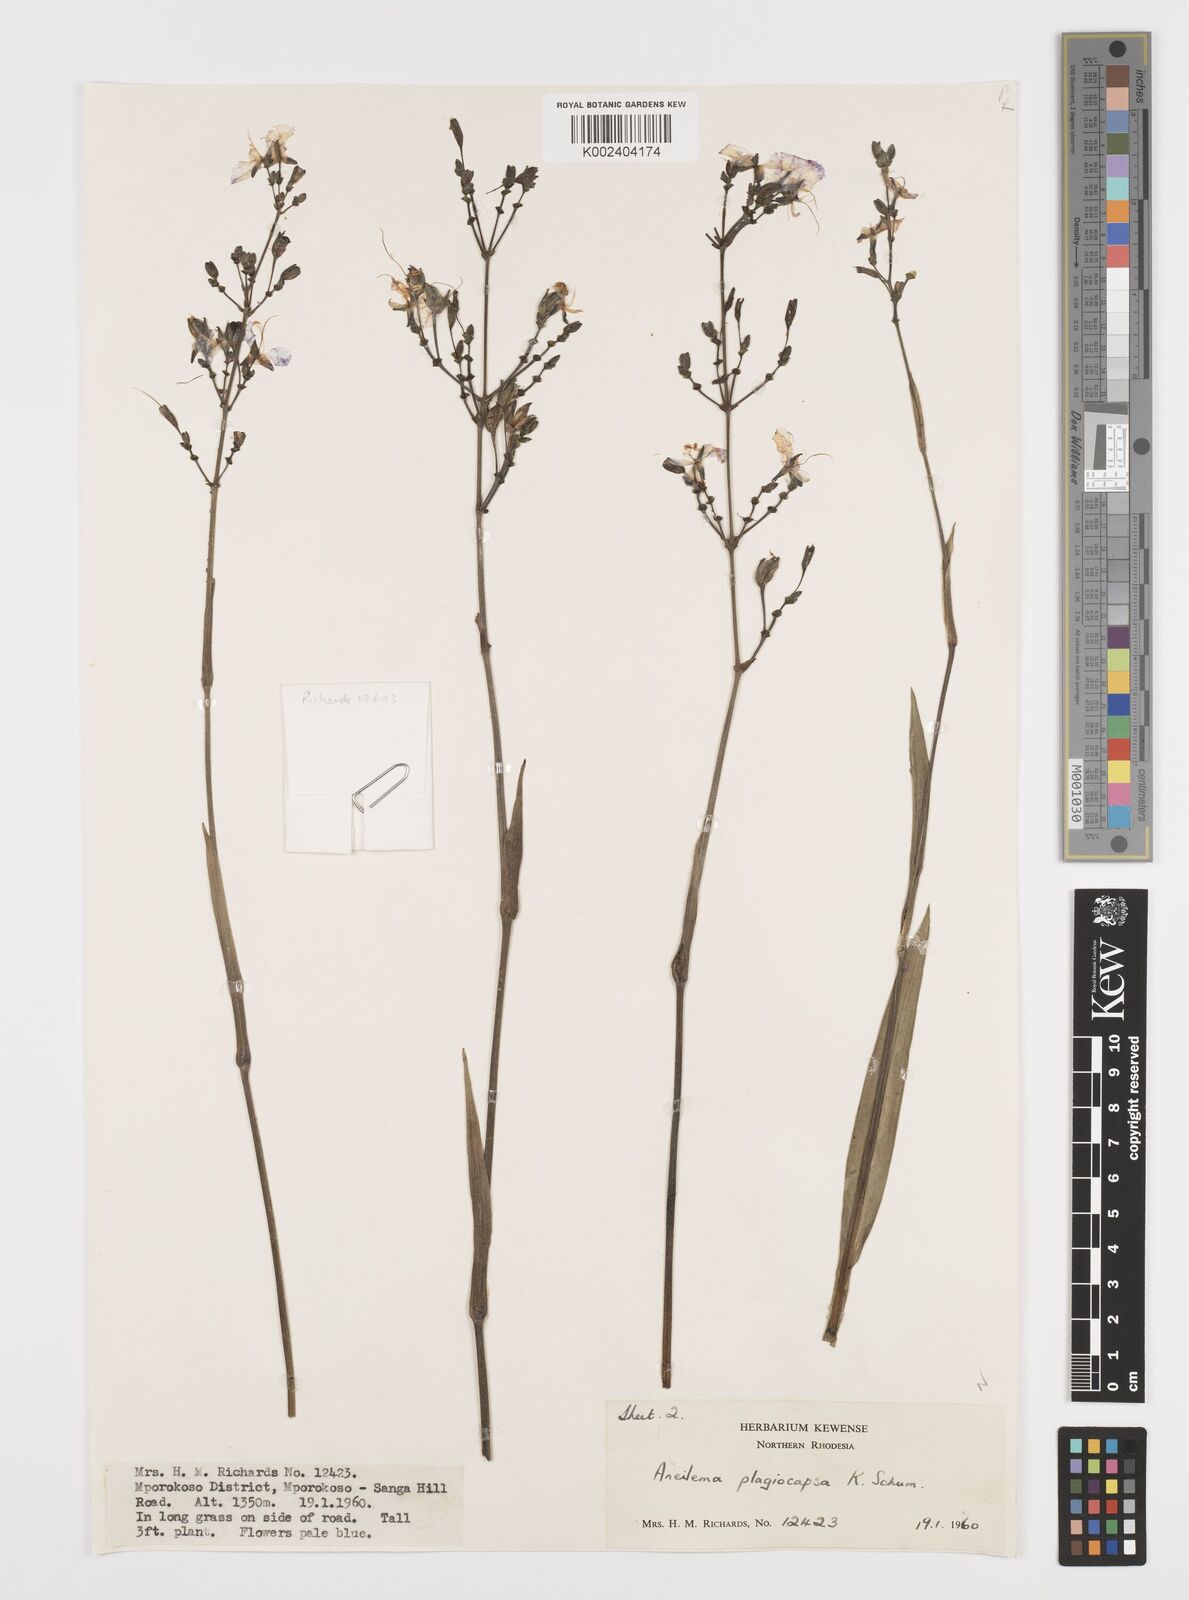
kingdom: Plantae
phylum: Tracheophyta
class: Liliopsida
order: Commelinales
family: Commelinaceae
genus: Aneilema
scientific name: Aneilema plagiocapsa
